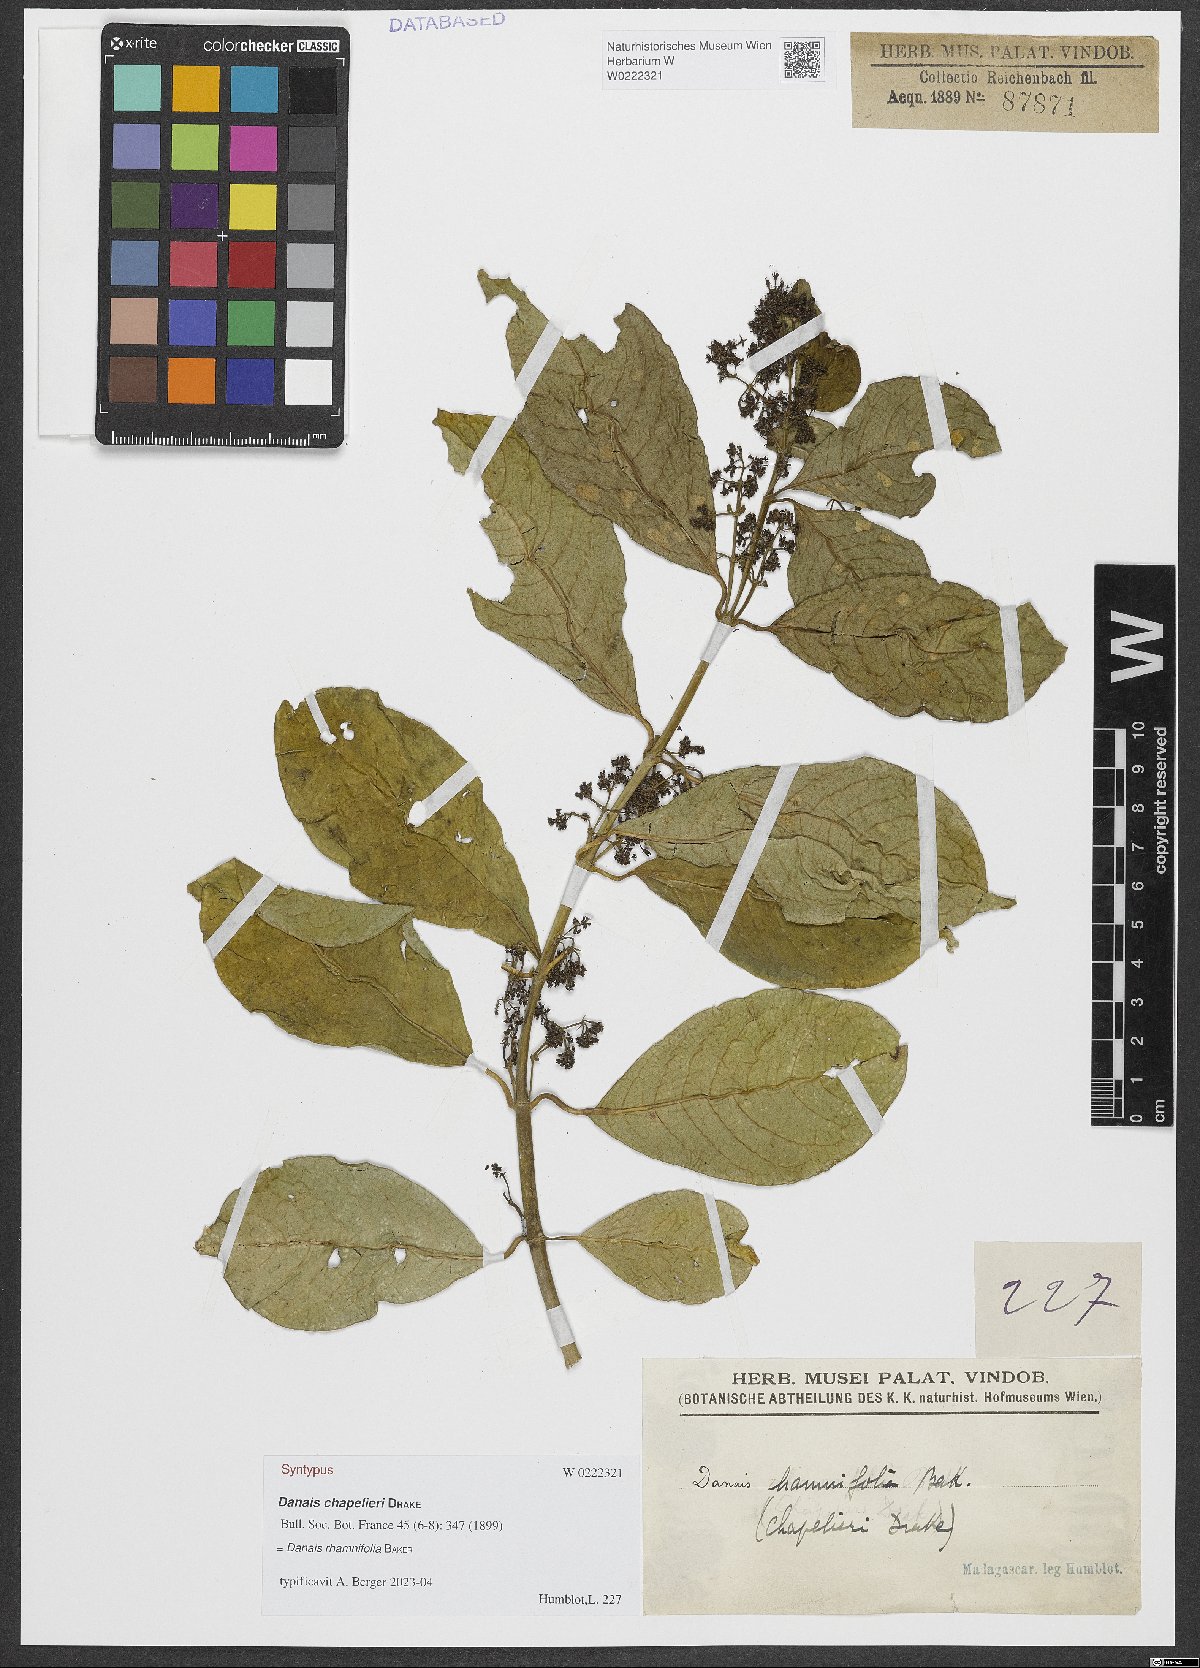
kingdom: Plantae
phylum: Tracheophyta
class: Magnoliopsida
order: Gentianales
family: Rubiaceae
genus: Danais
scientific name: Danais rhamnifolia
